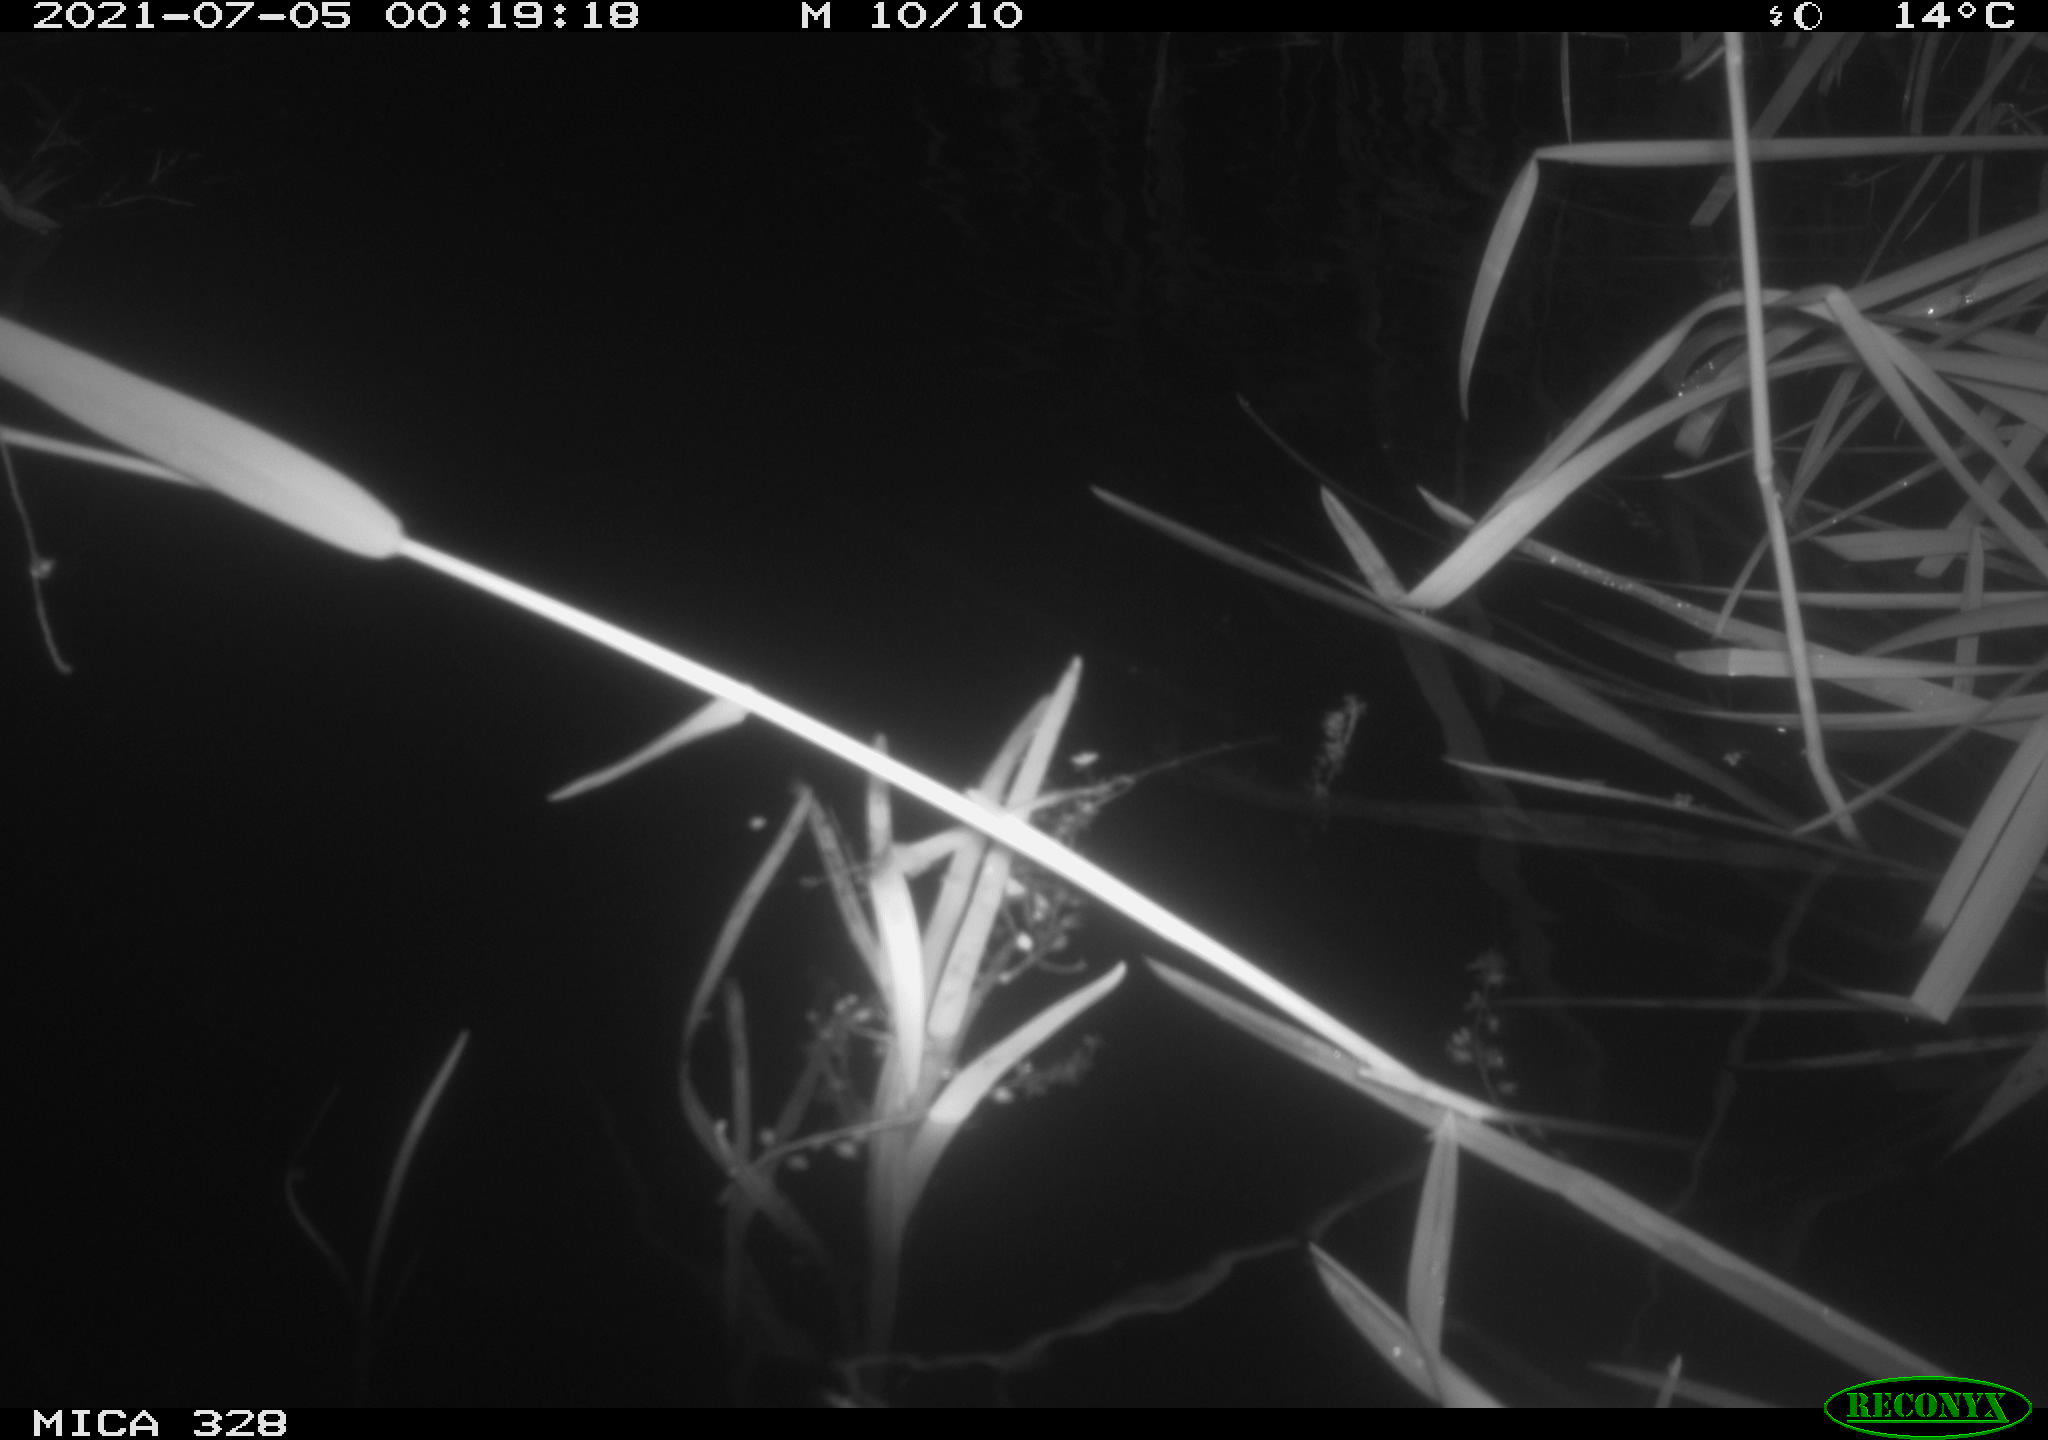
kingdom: Animalia
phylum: Chordata
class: Mammalia
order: Rodentia
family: Cricetidae
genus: Ondatra
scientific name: Ondatra zibethicus
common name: Muskrat
